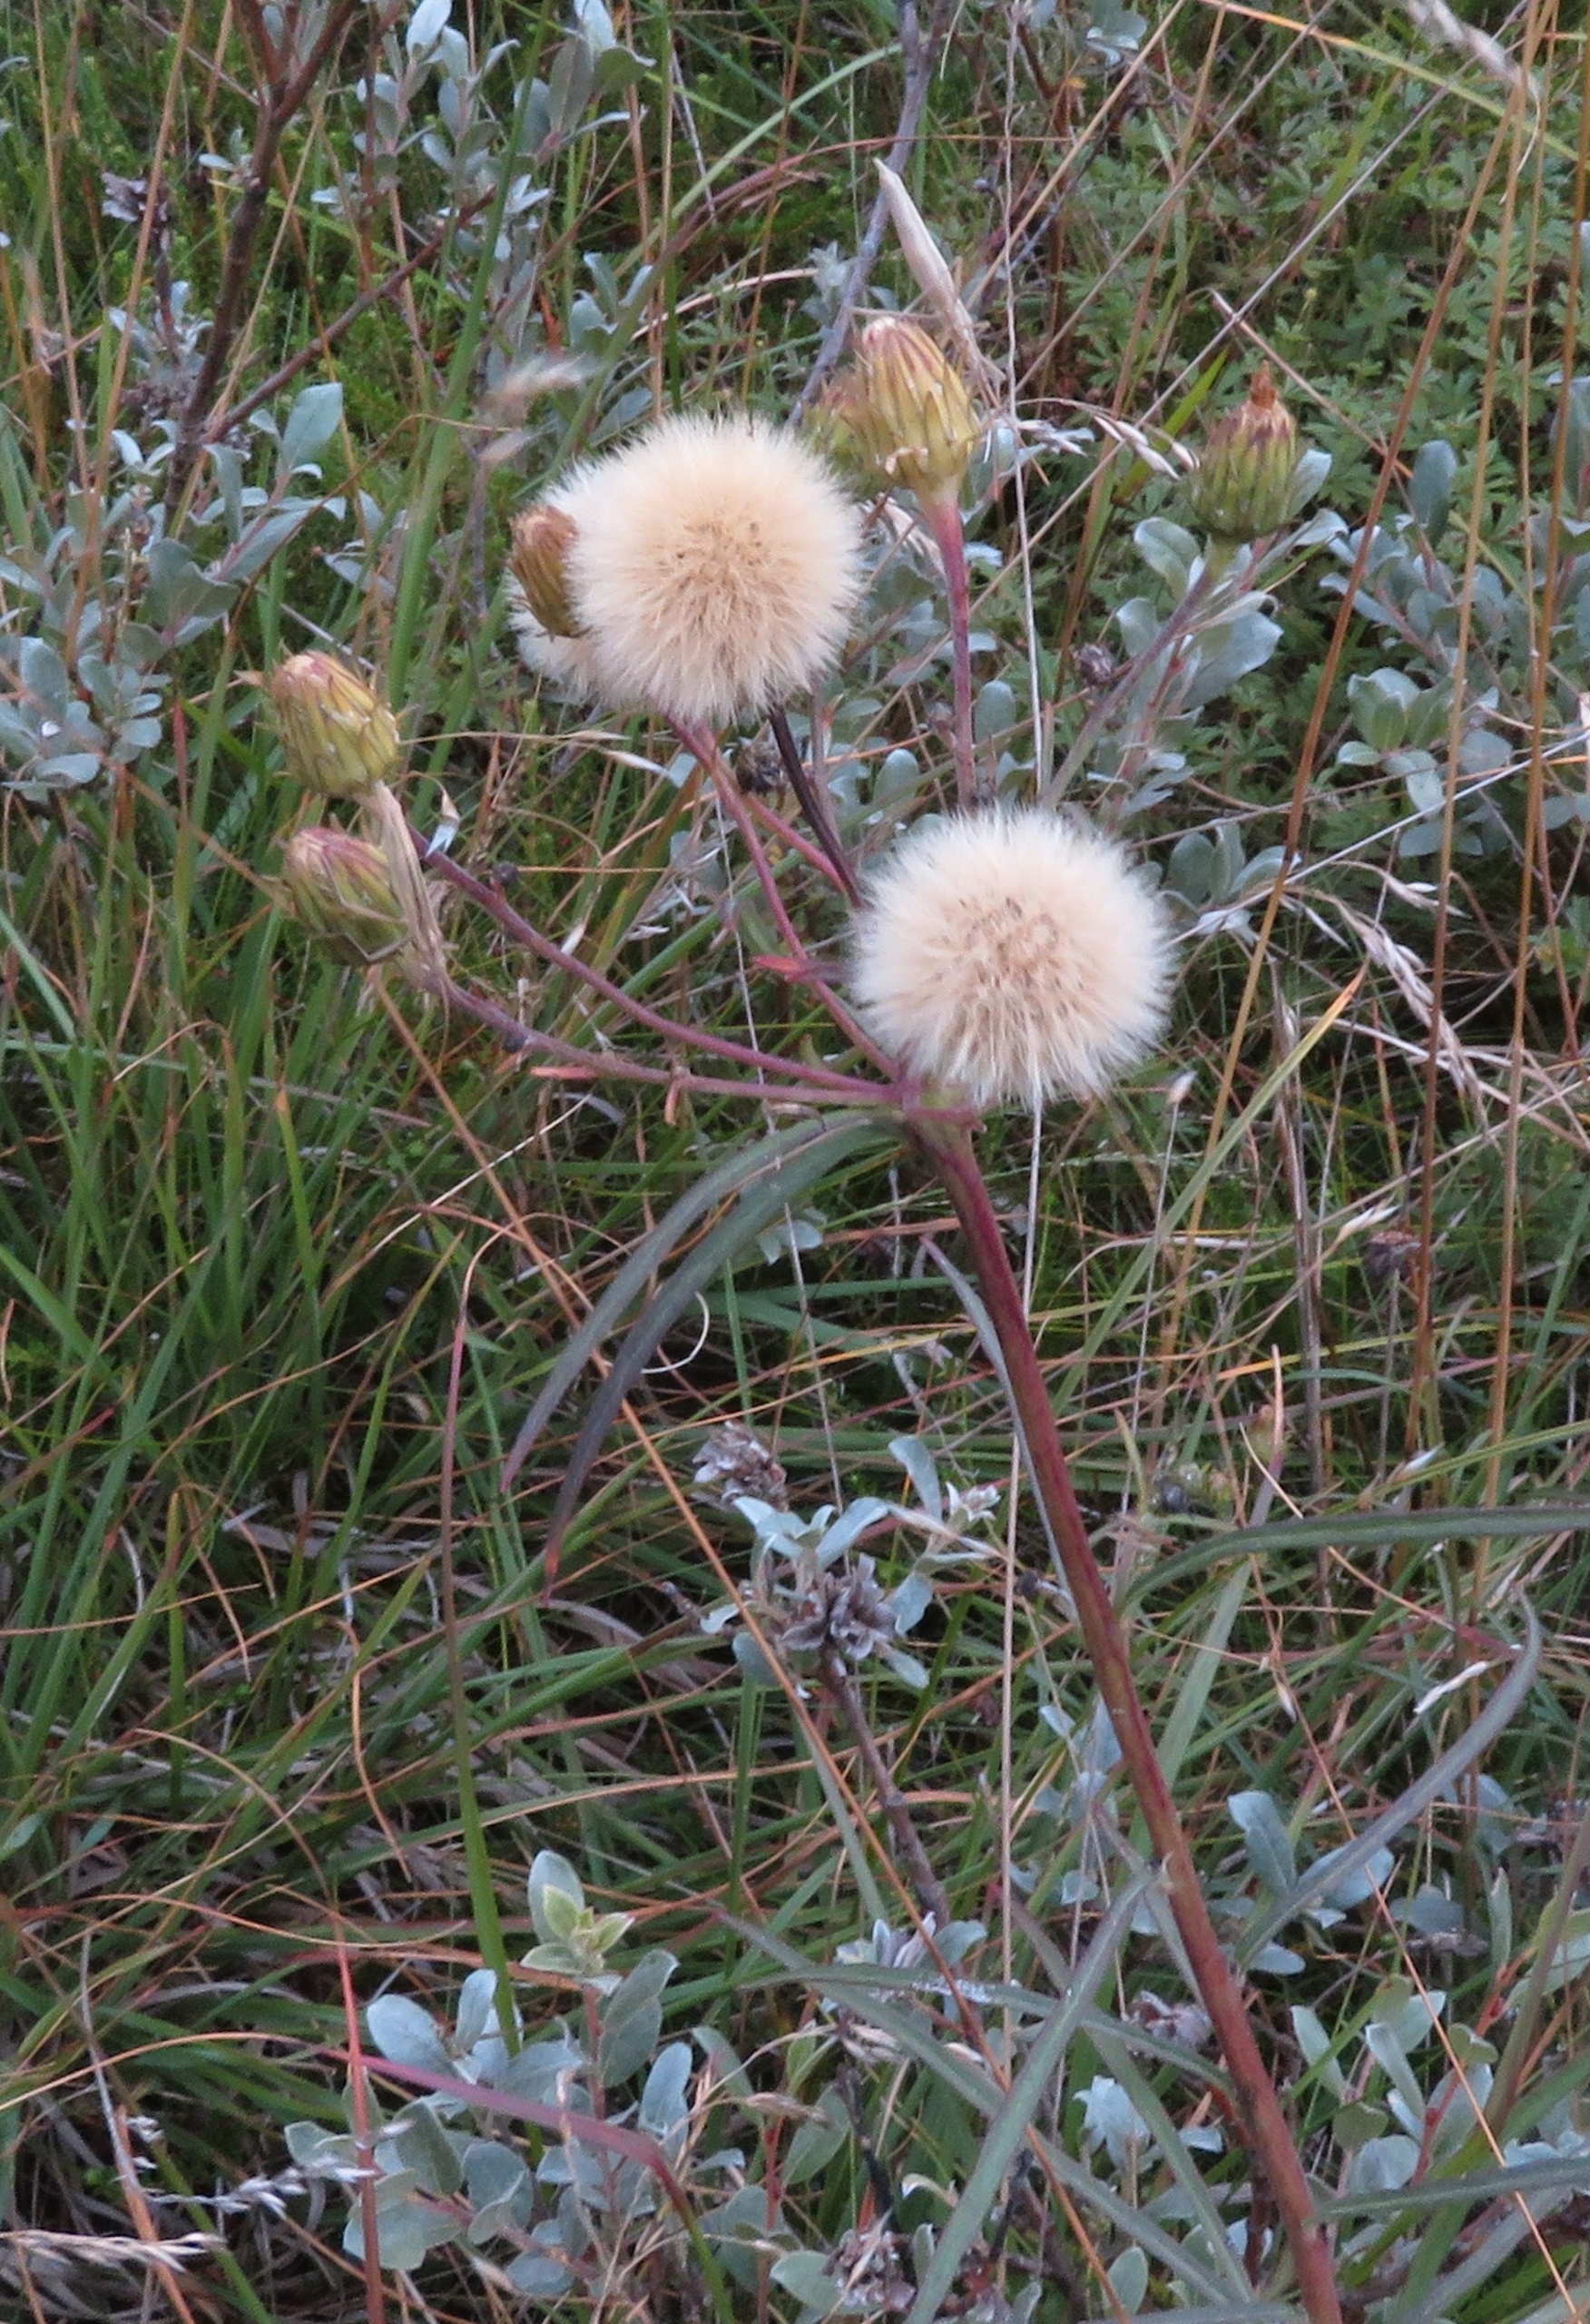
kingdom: Plantae
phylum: Tracheophyta
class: Magnoliopsida
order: Asterales
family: Asteraceae
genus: Hieracium
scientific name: Hieracium umbellatum
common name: Smalbladet høgeurt
